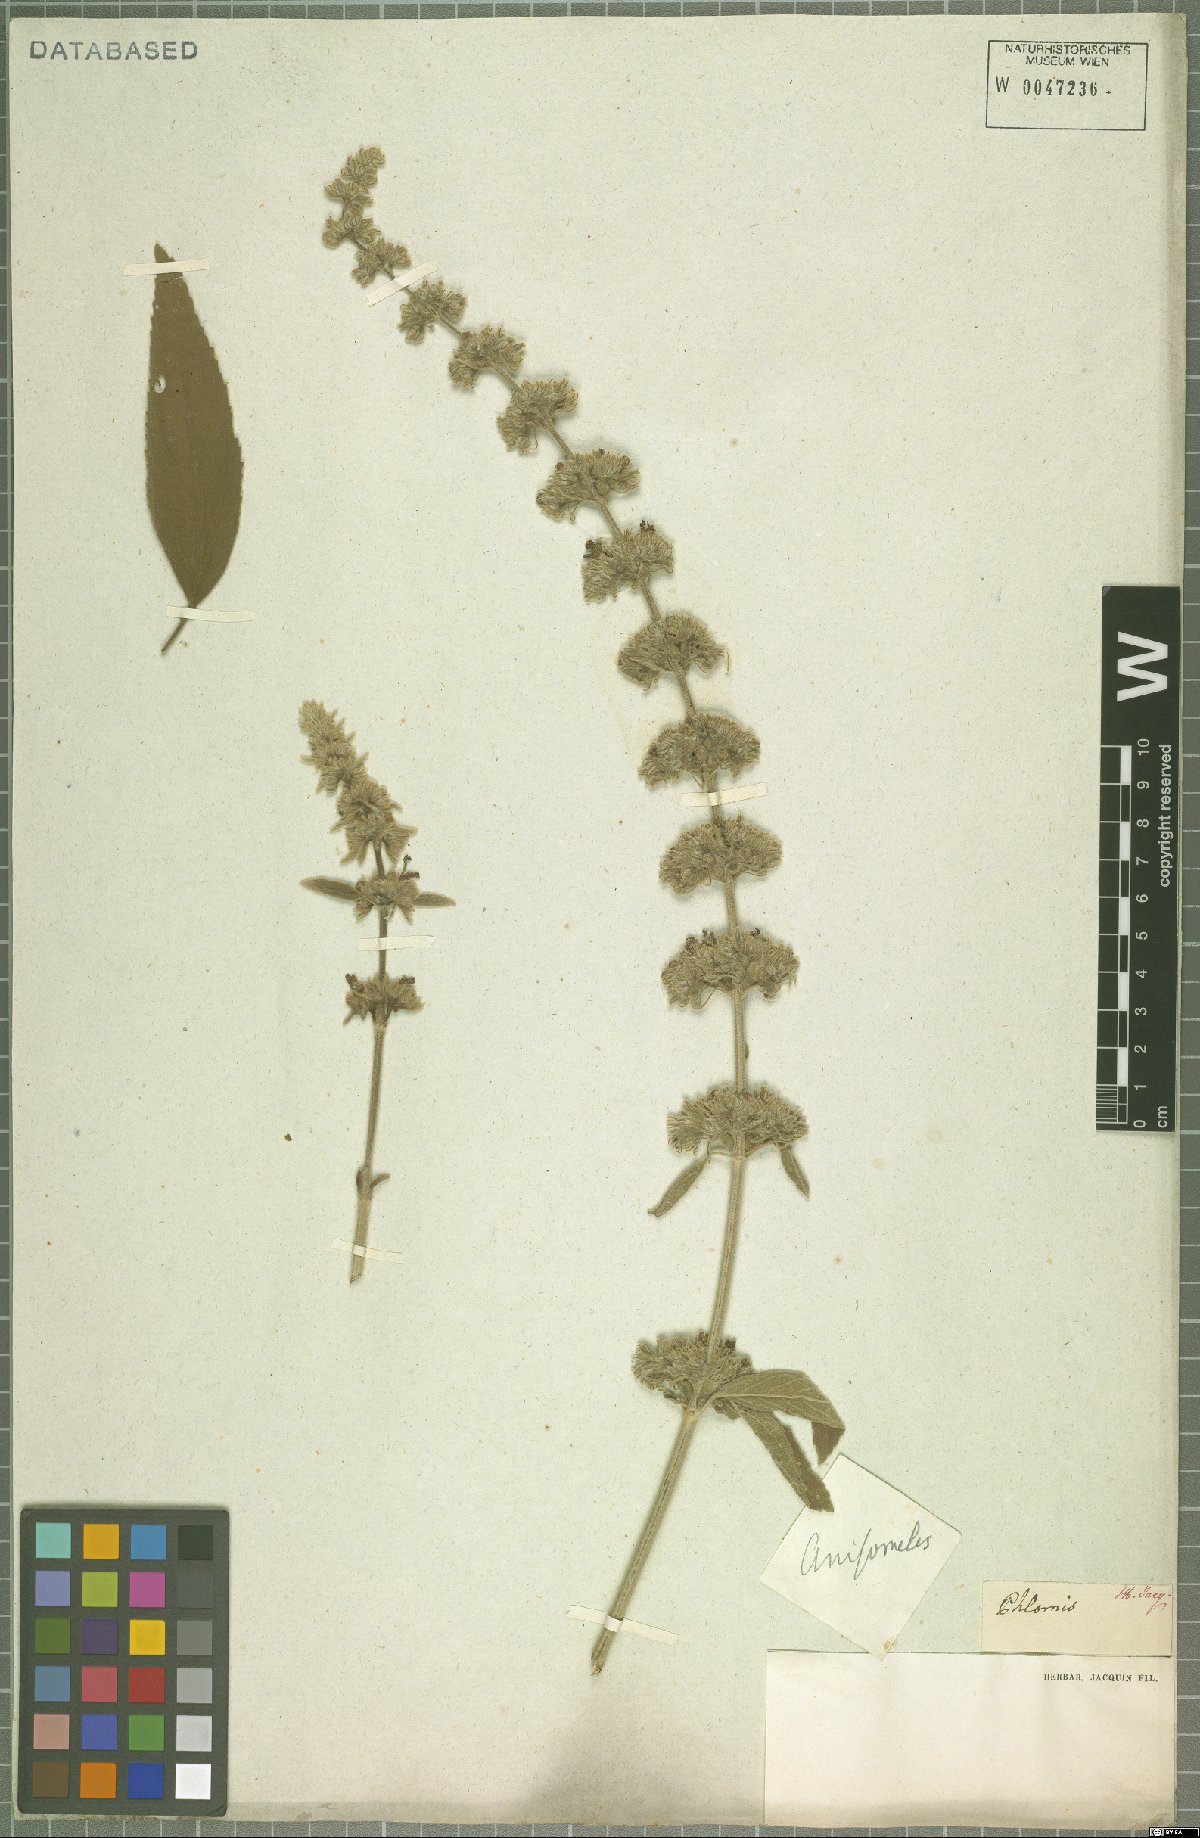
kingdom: Plantae
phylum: Tracheophyta
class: Magnoliopsida
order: Lamiales
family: Lamiaceae
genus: Anisomeles
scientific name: Anisomeles
